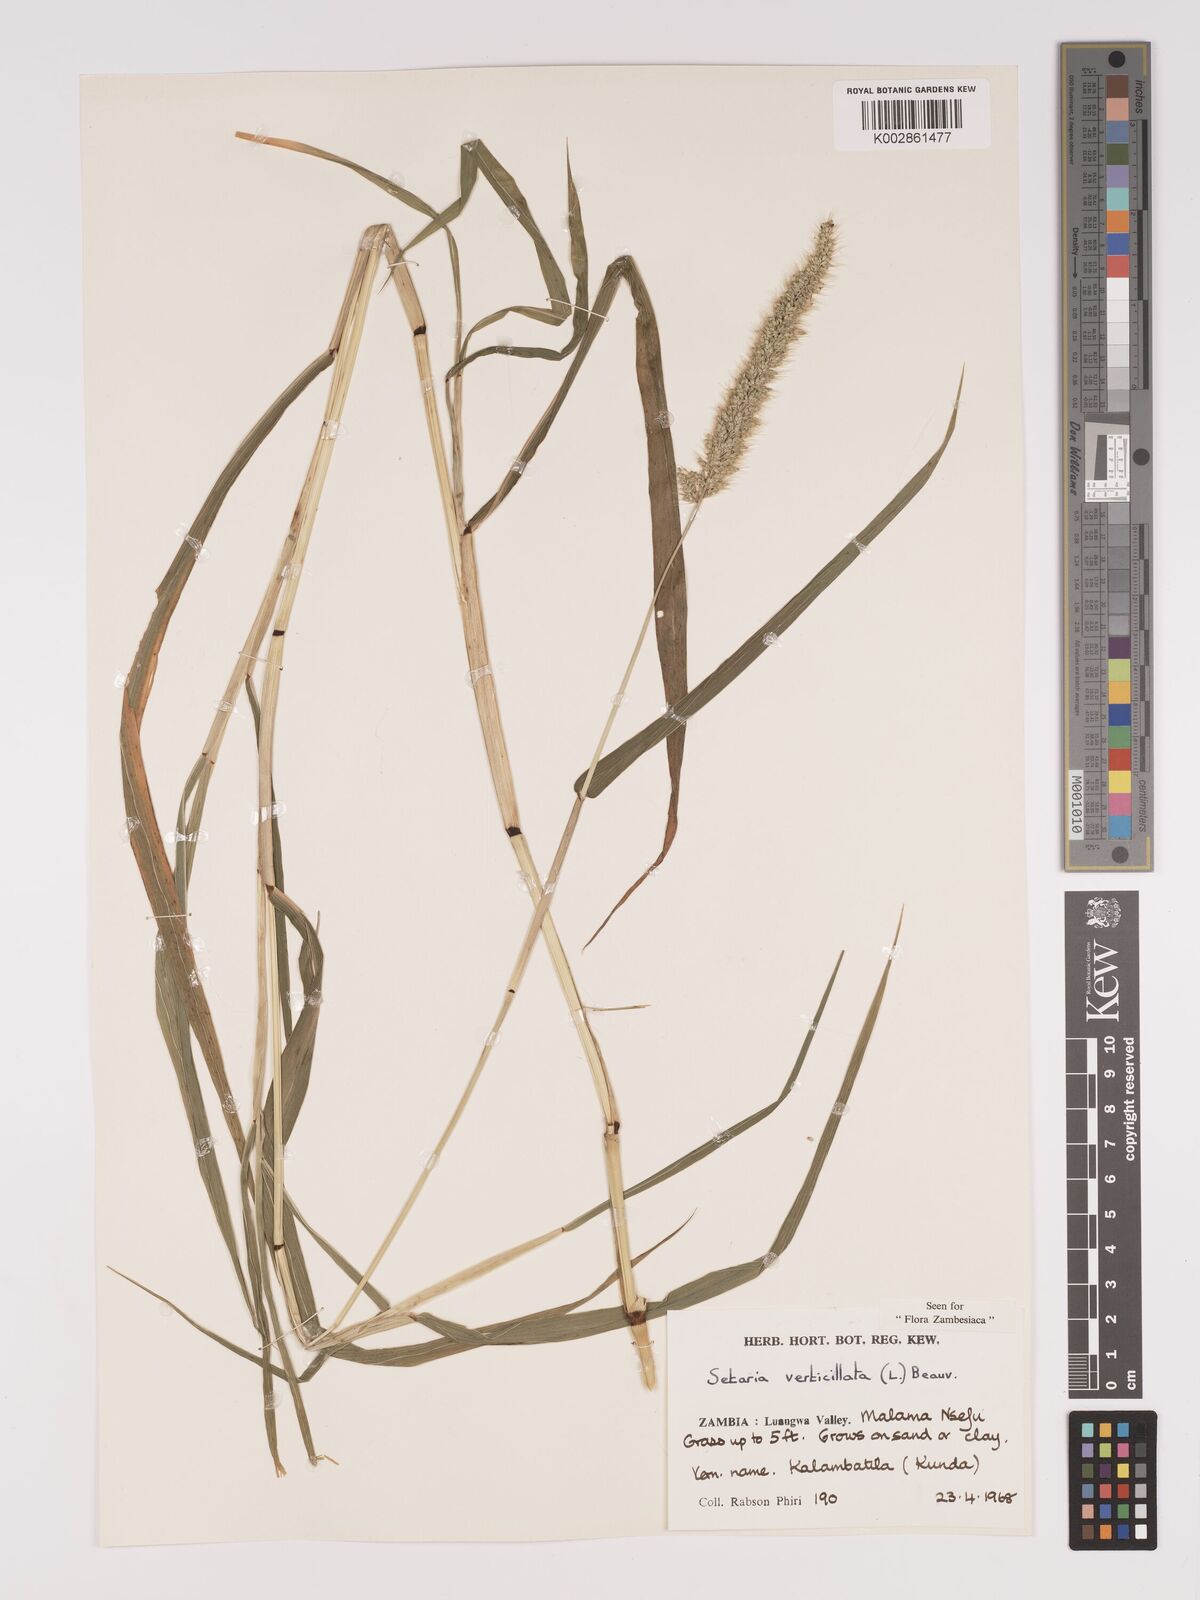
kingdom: Plantae
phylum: Tracheophyta
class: Liliopsida
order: Poales
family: Poaceae
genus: Setaria
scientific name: Setaria verticillata
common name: Hooked bristlegrass
